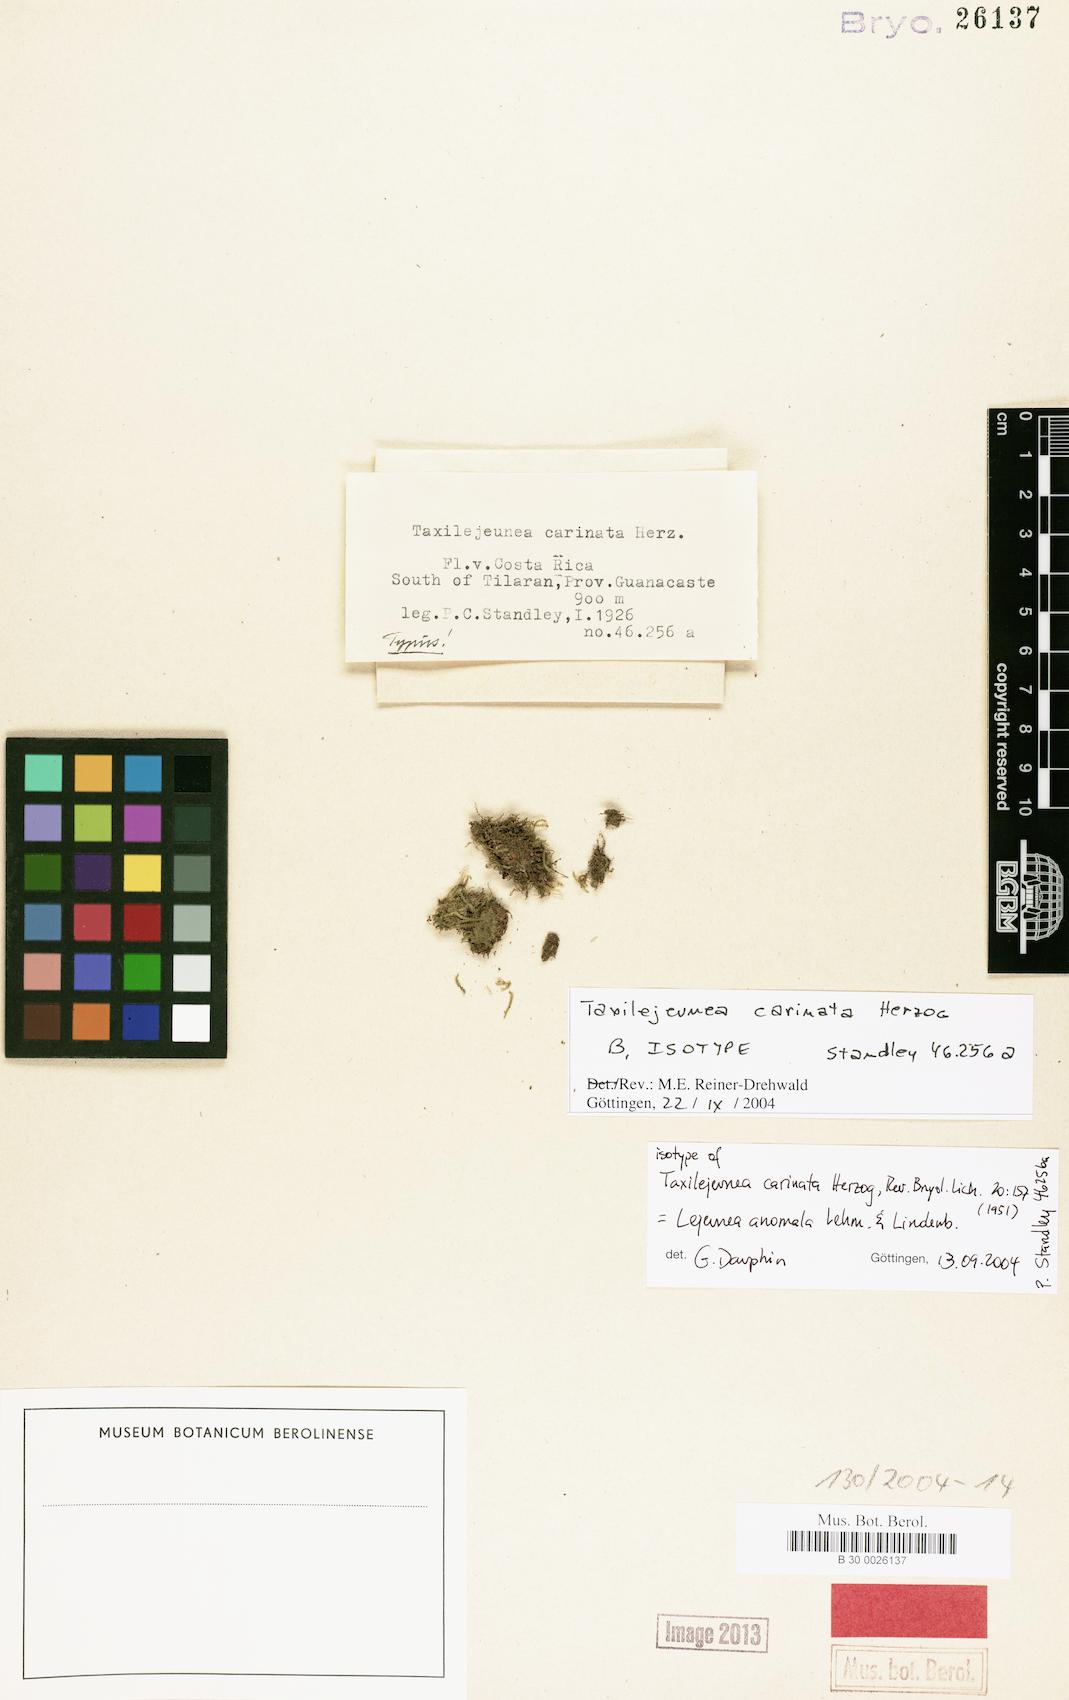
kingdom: Plantae
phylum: Marchantiophyta
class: Jungermanniopsida
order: Porellales
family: Lejeuneaceae
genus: Lejeunea
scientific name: Lejeunea anomala
